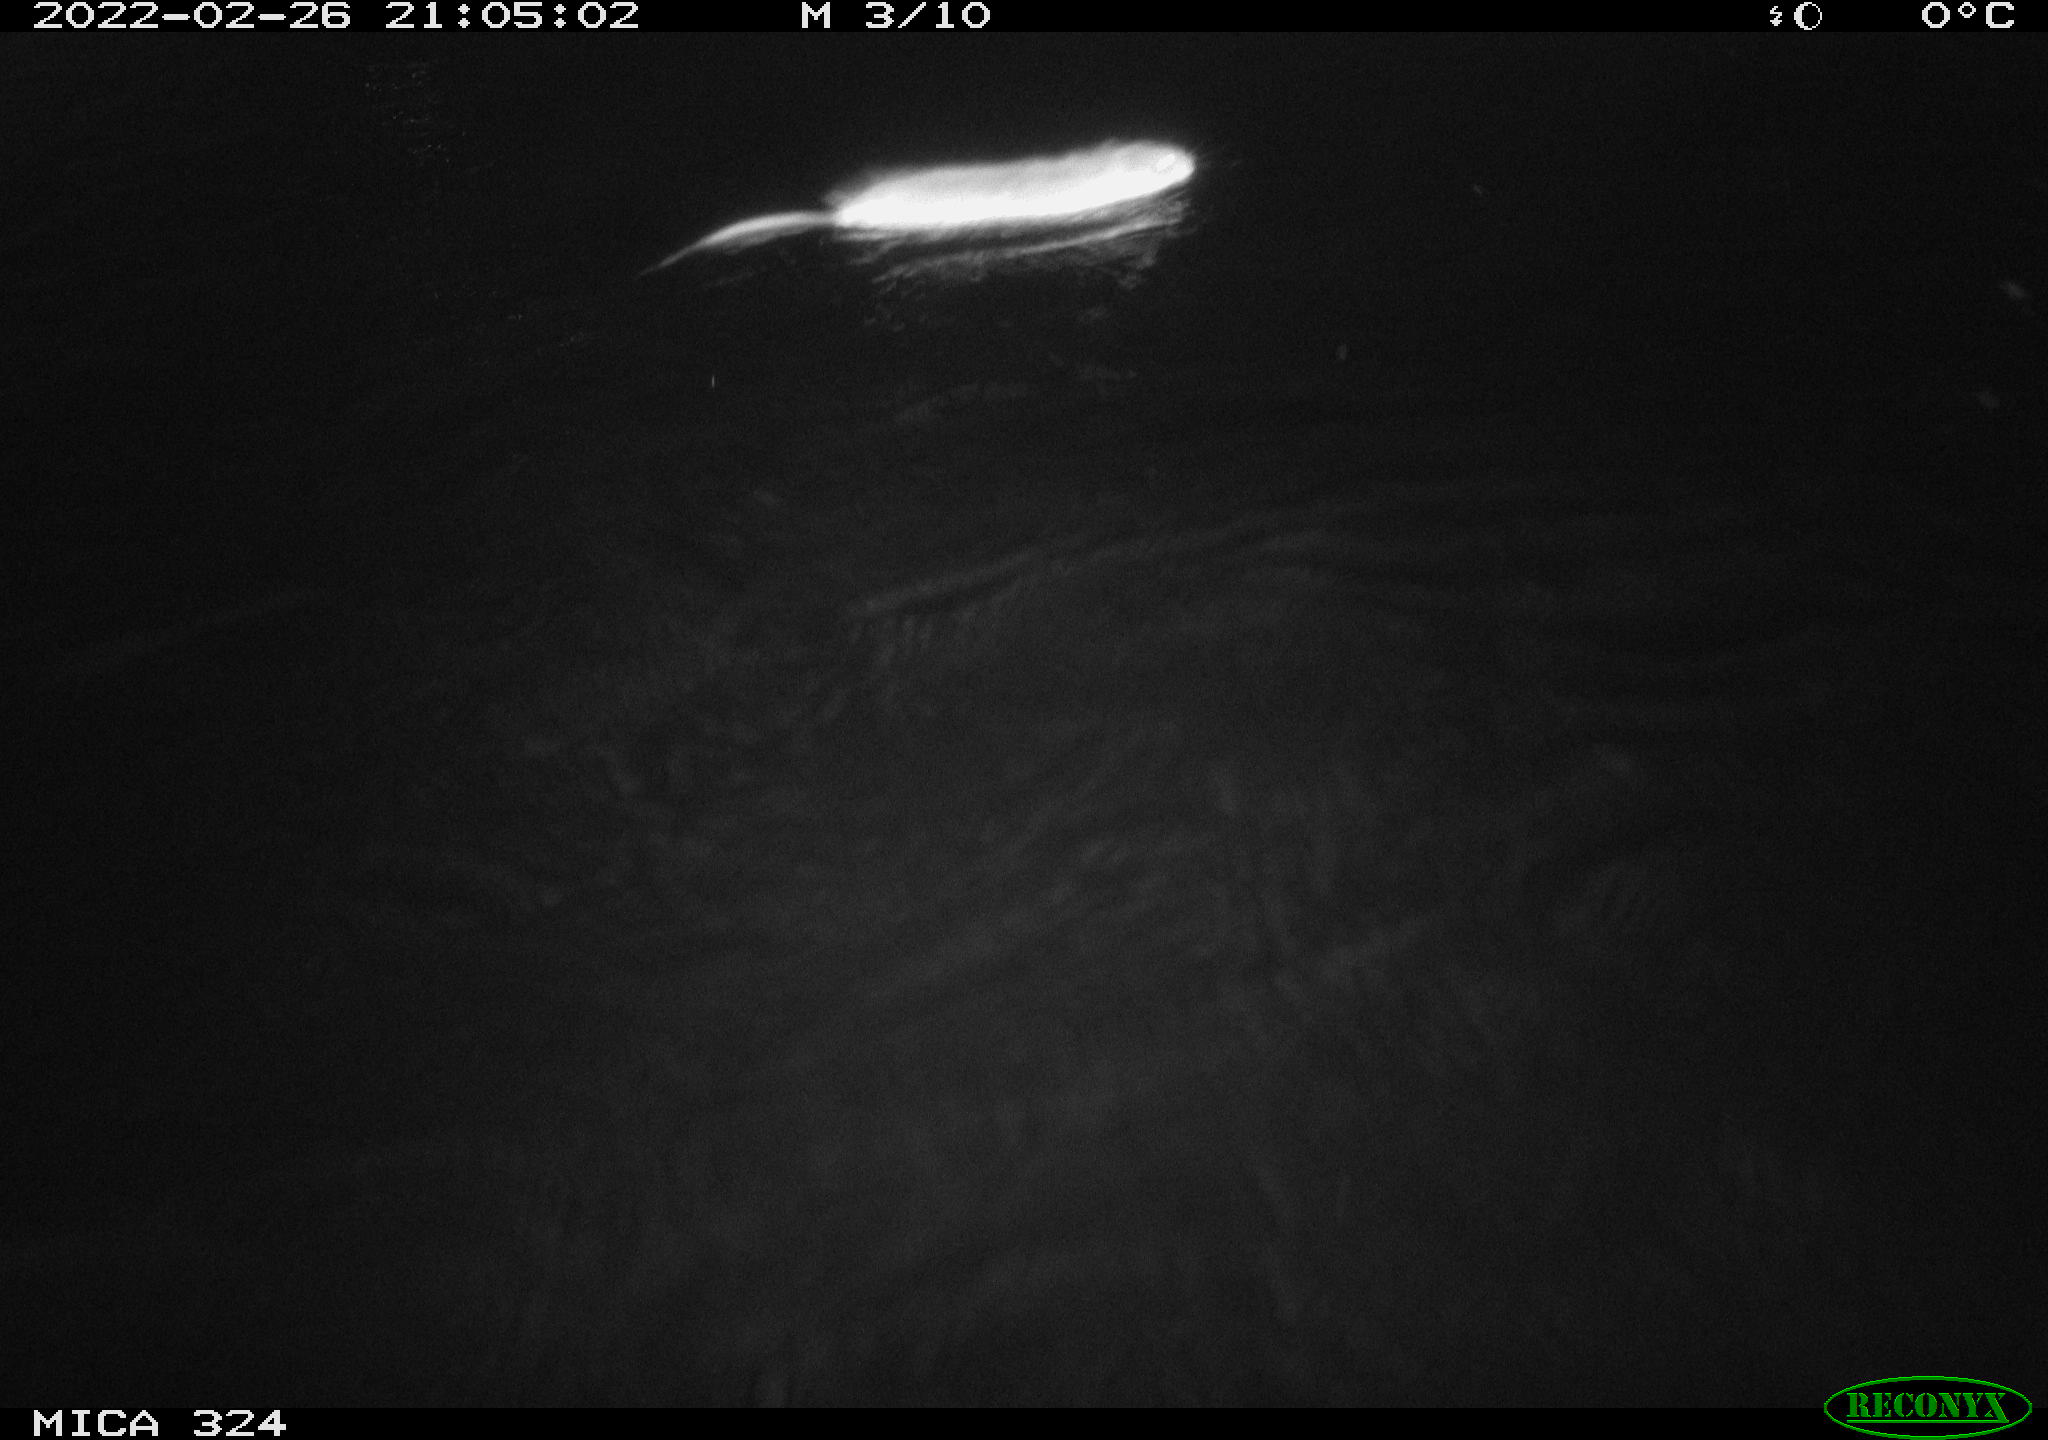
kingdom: Animalia
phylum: Chordata
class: Mammalia
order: Rodentia
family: Cricetidae
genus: Ondatra
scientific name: Ondatra zibethicus
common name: Muskrat
